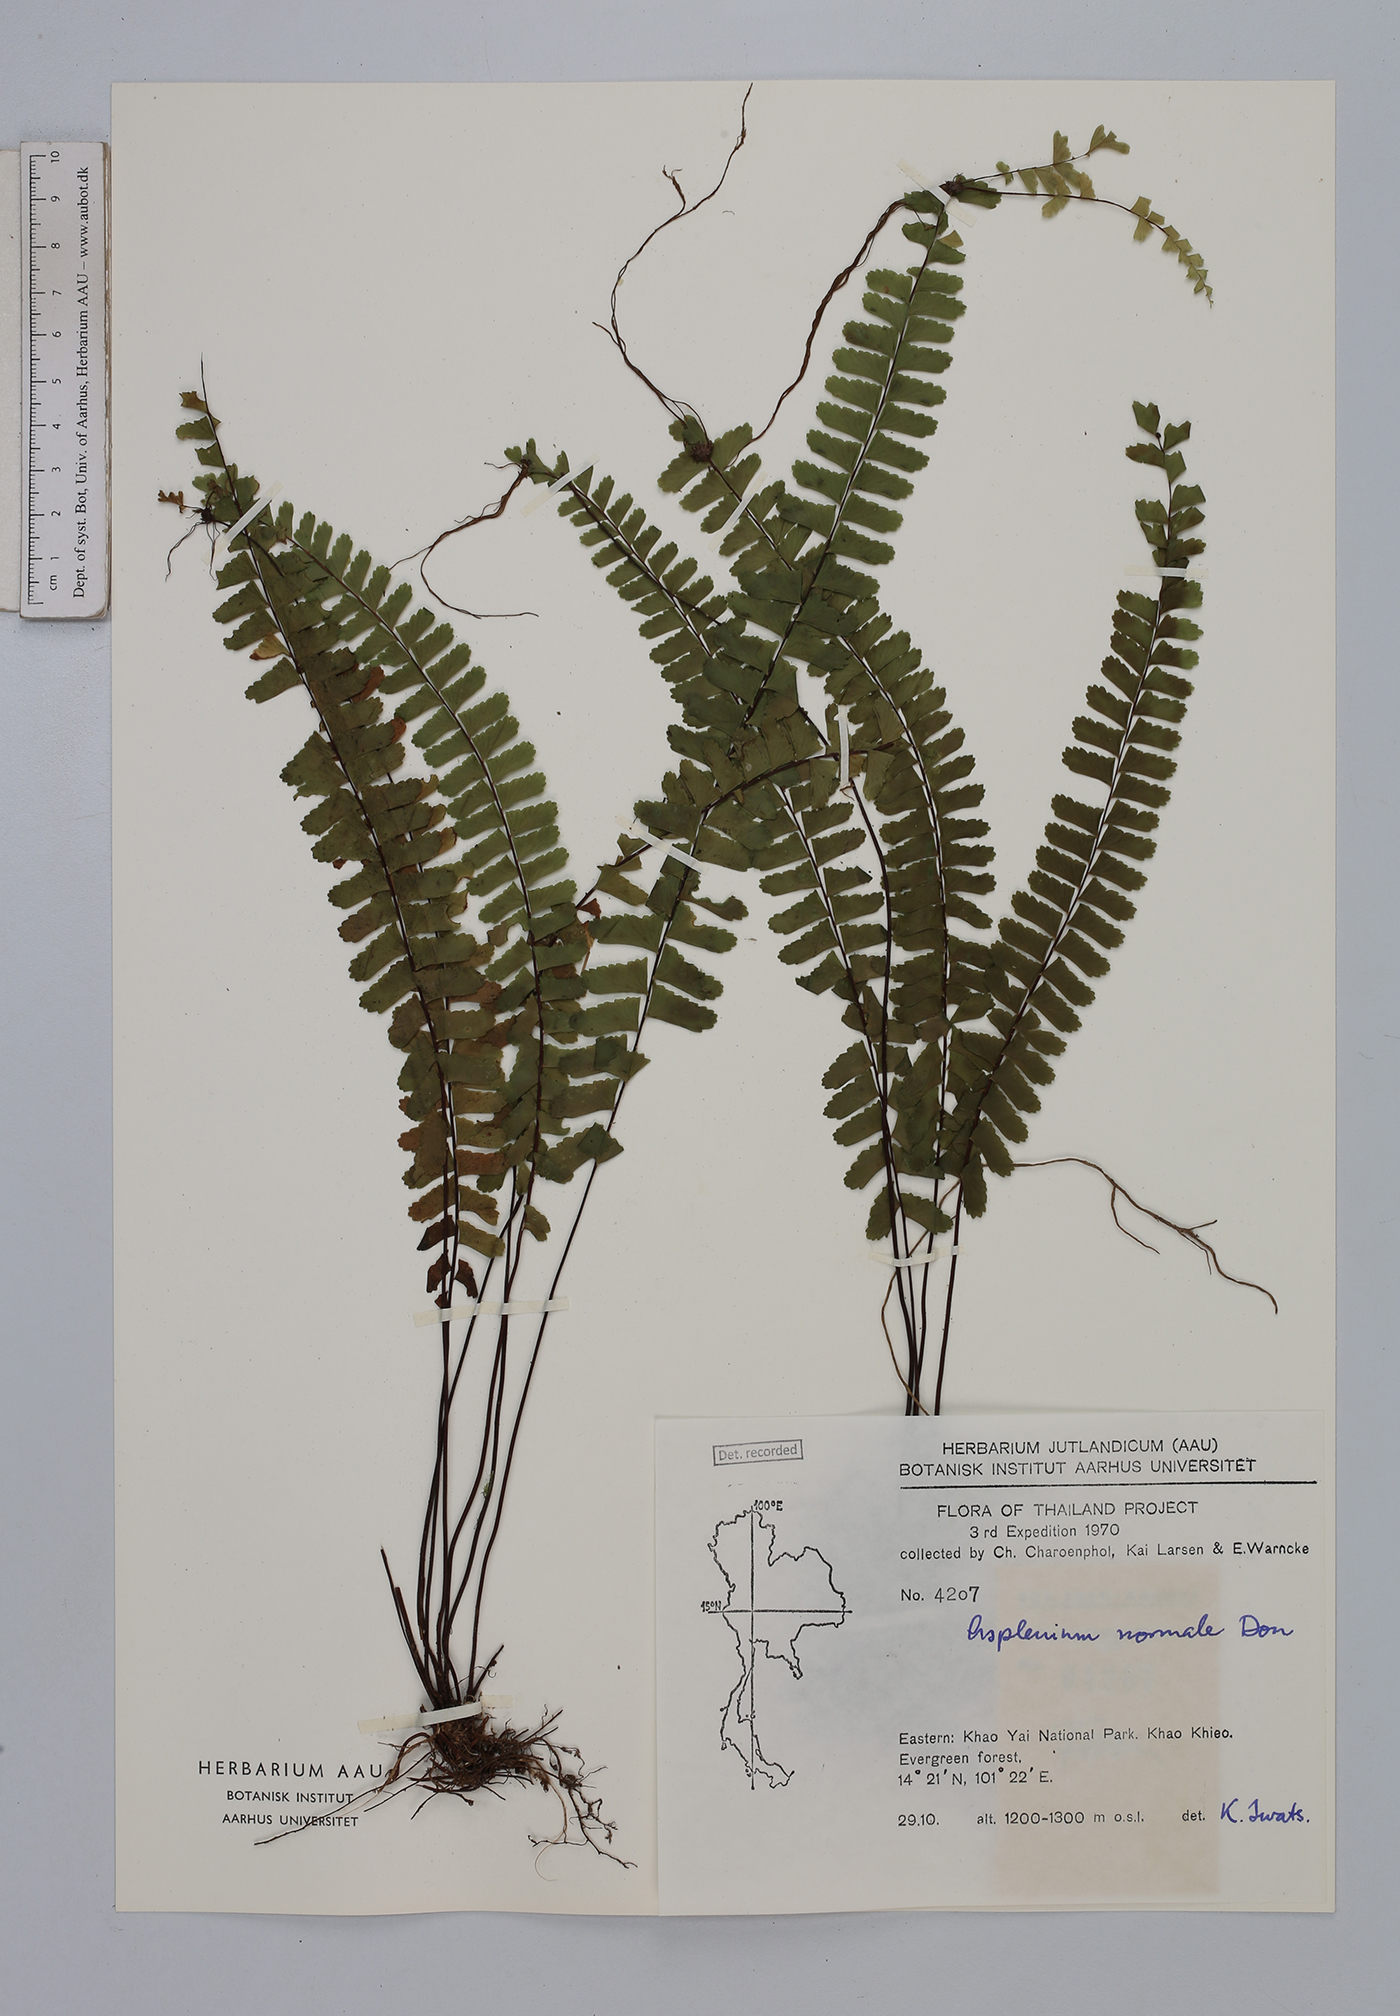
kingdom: Plantae
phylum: Tracheophyta
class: Polypodiopsida
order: Polypodiales
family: Aspleniaceae
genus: Asplenium
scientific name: Asplenium normale
